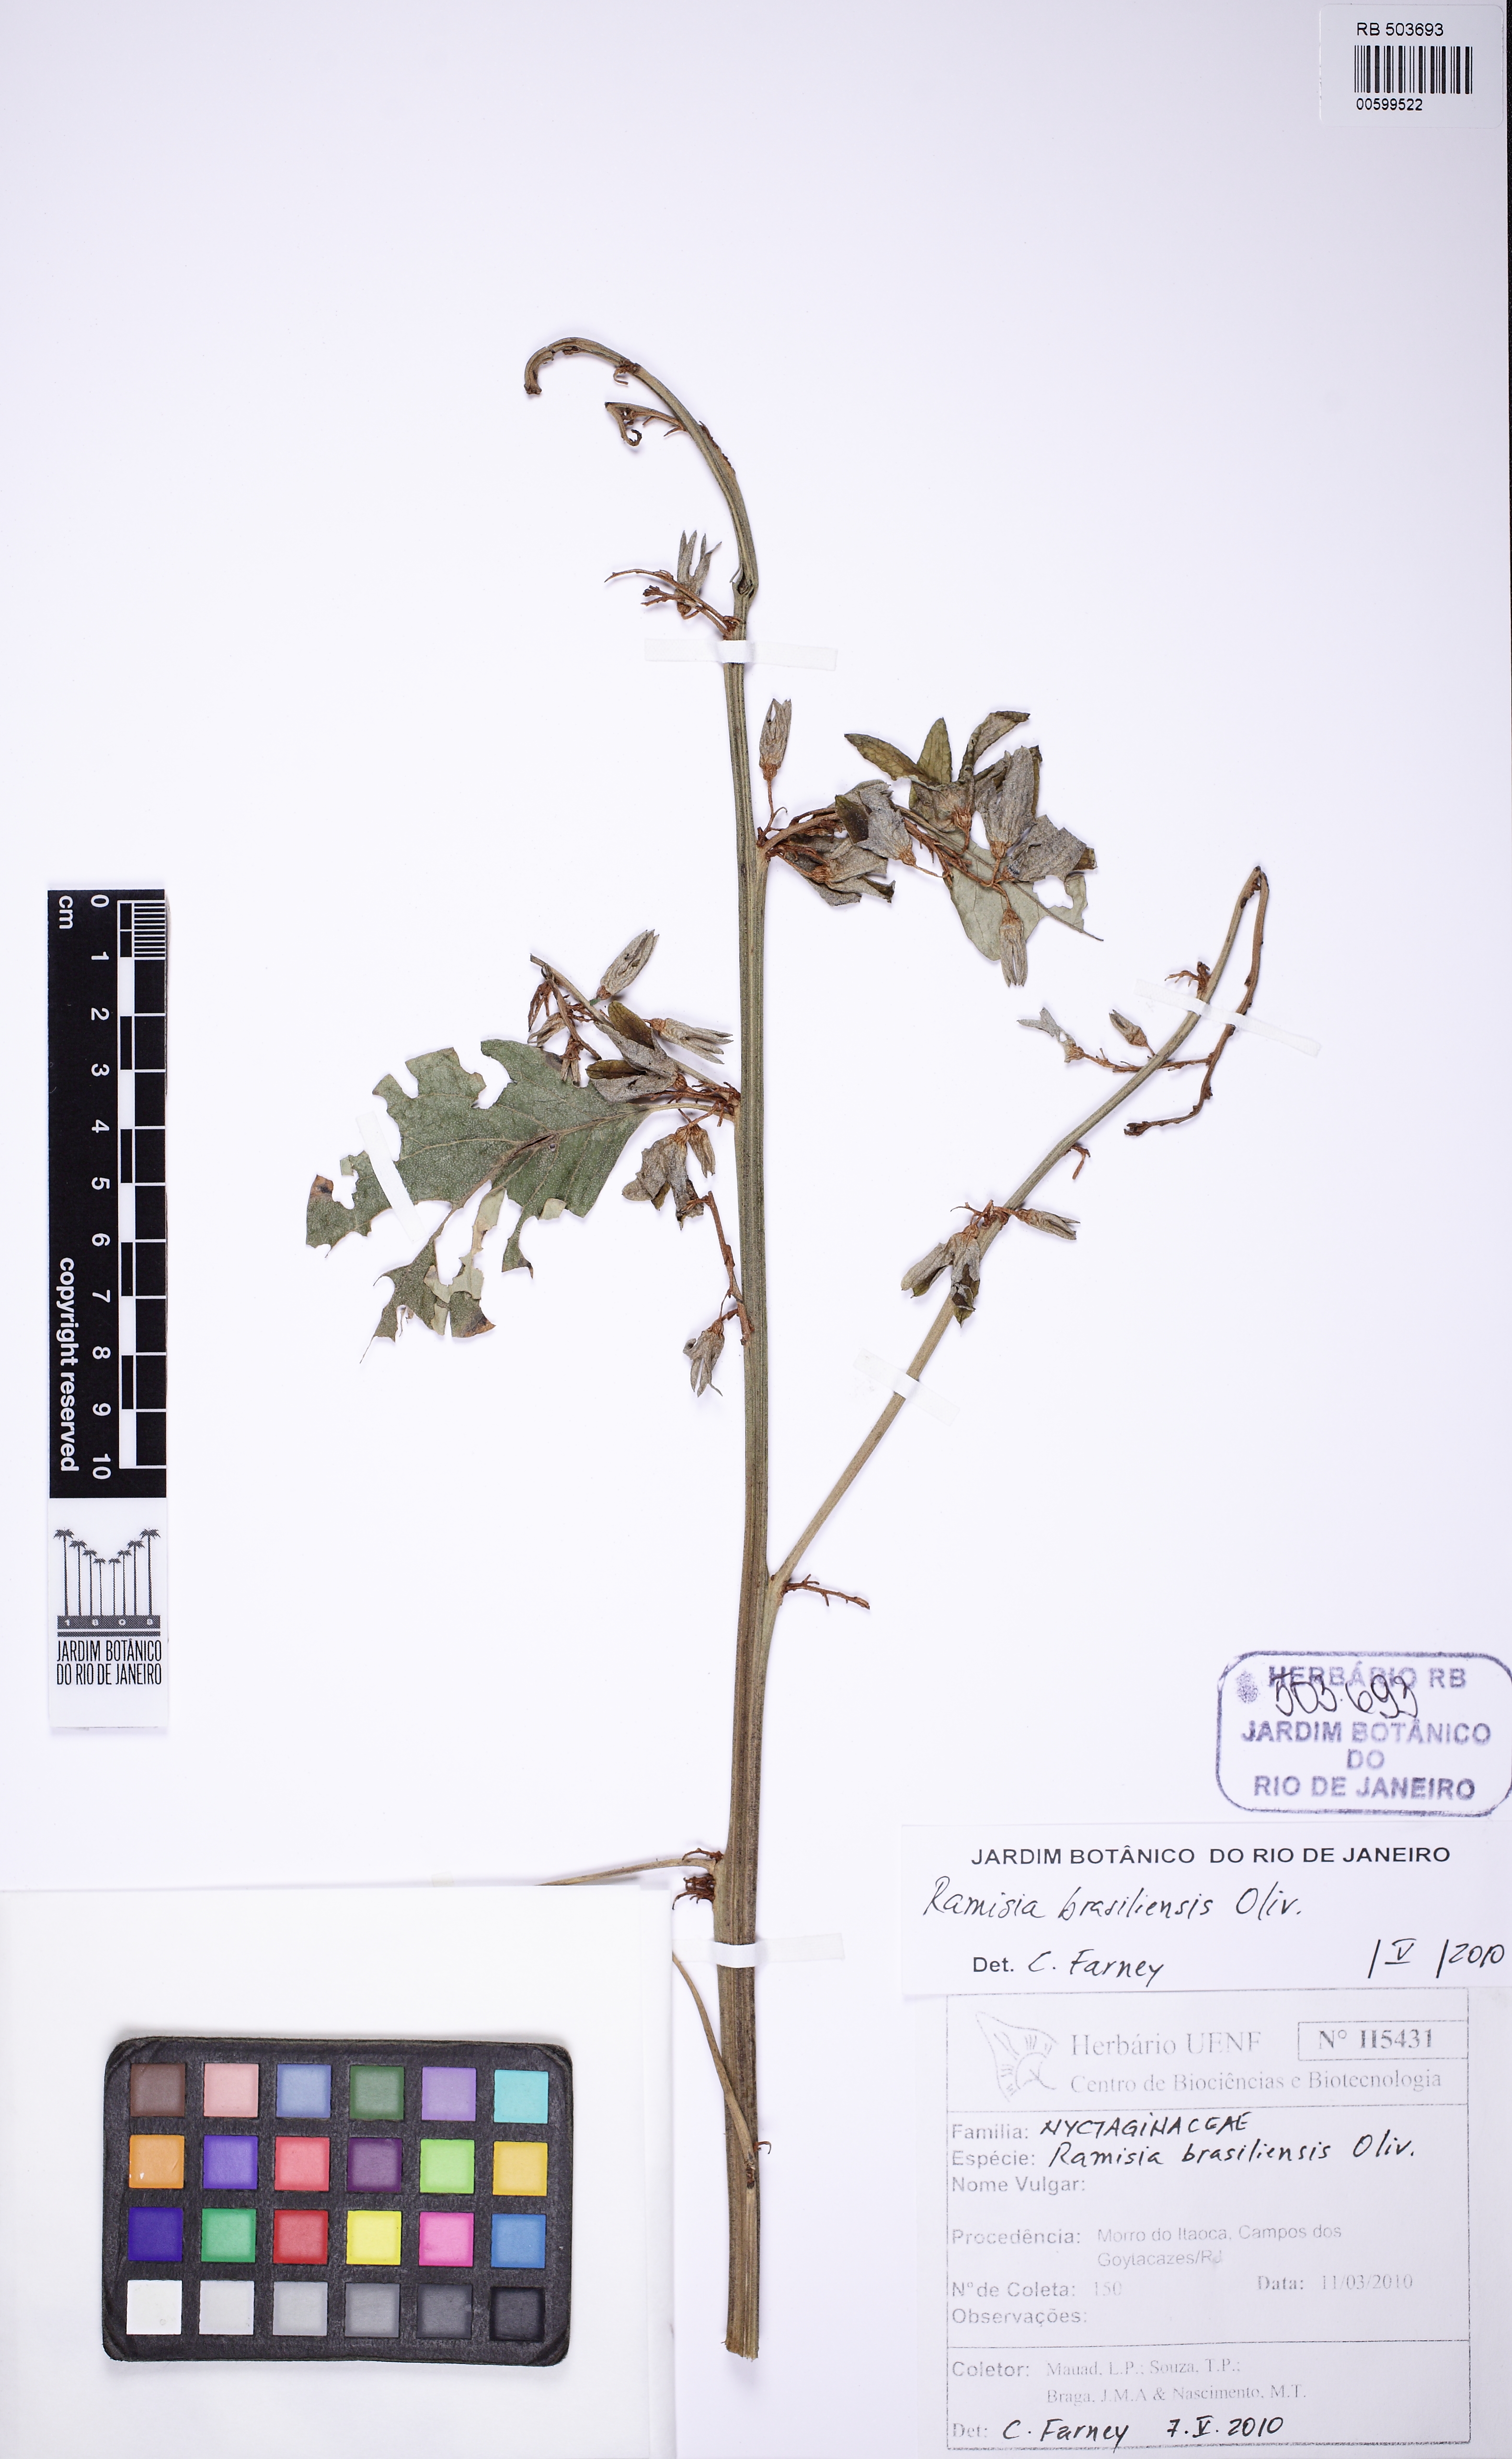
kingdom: Plantae
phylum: Tracheophyta
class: Magnoliopsida
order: Caryophyllales
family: Nyctaginaceae
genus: Ramisia
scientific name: Ramisia brasiliensis
